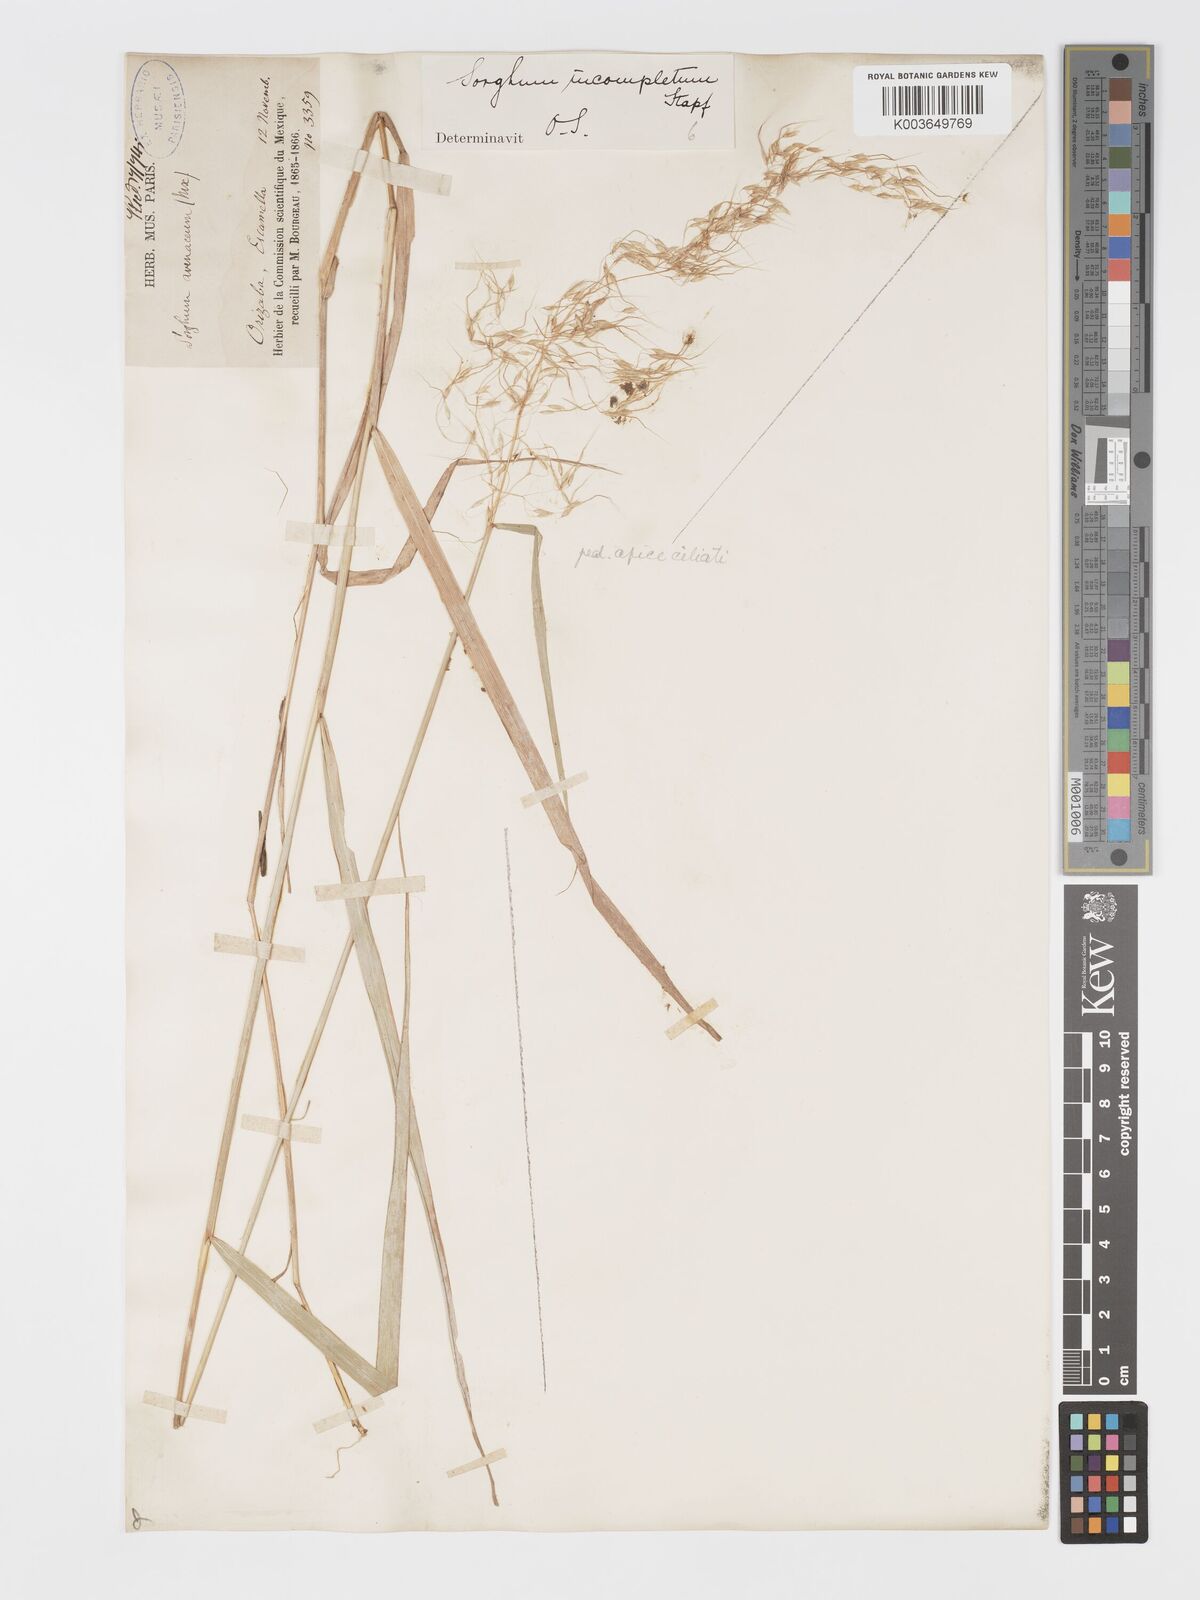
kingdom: Plantae
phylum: Tracheophyta
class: Liliopsida
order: Poales
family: Poaceae
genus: Sorghastrum
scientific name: Sorghastrum incompletum
